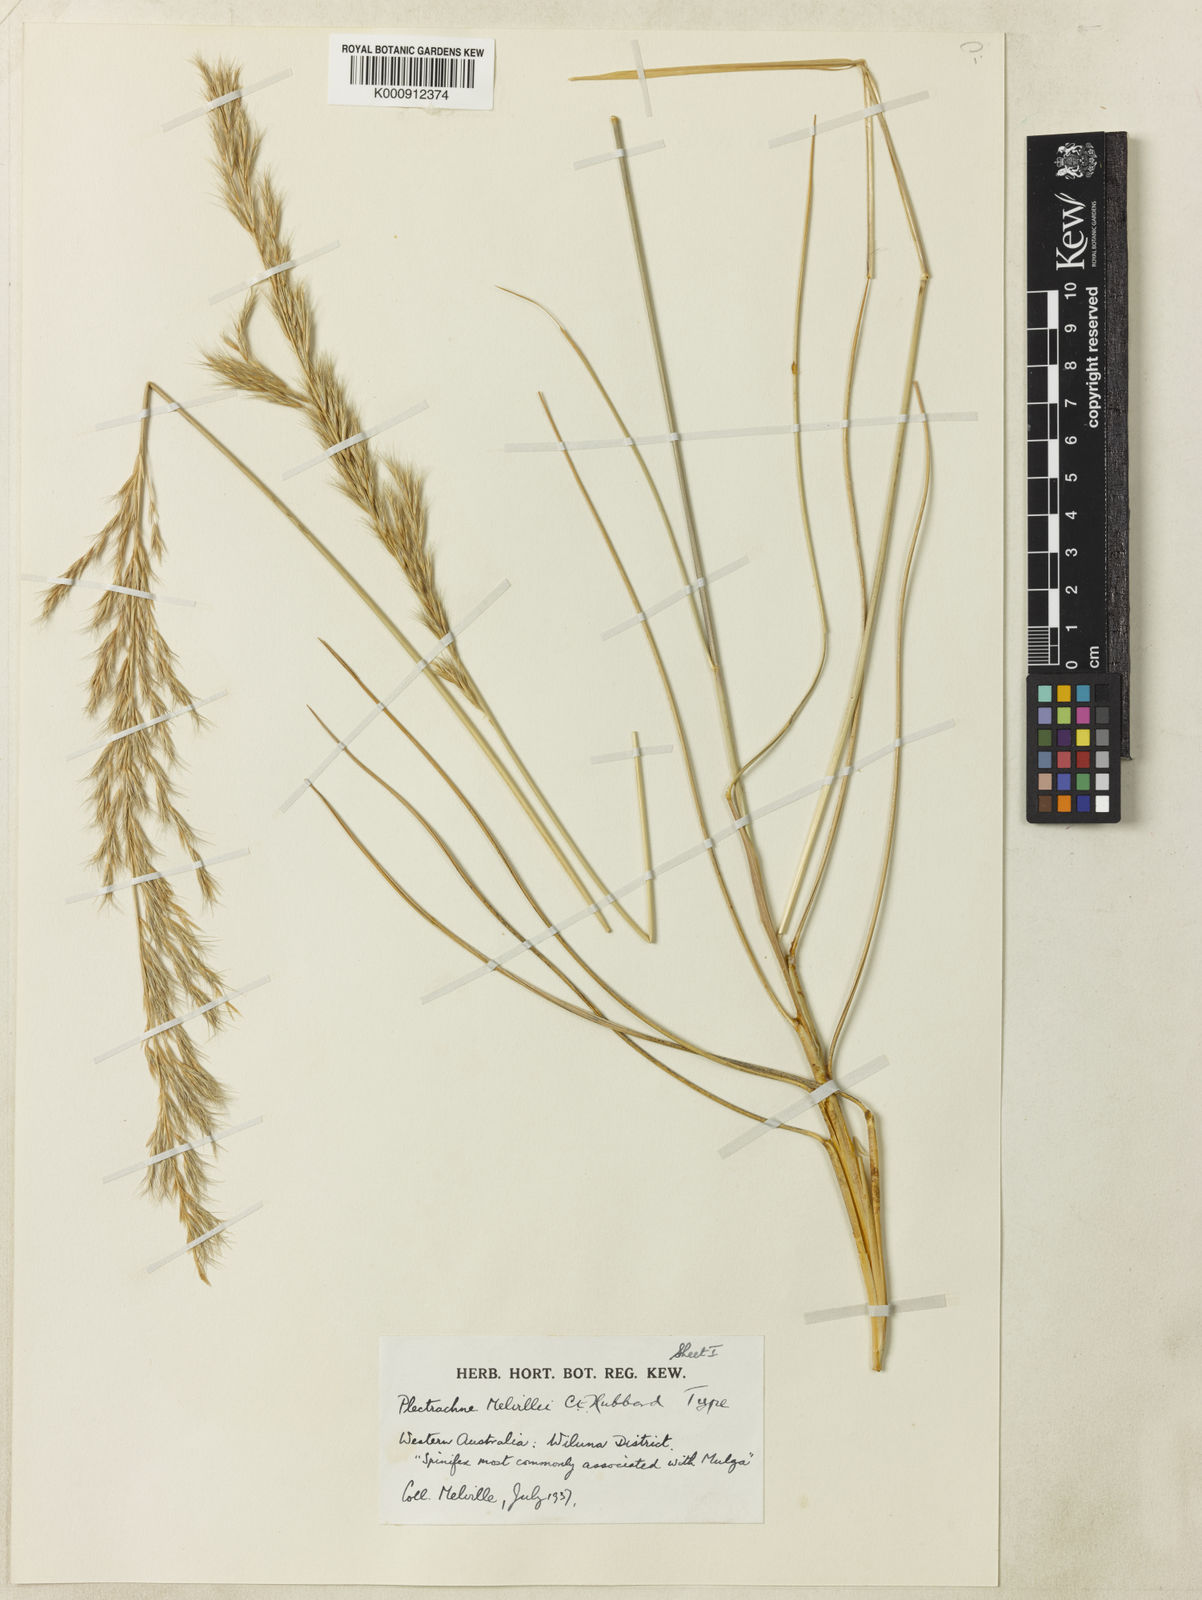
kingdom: Plantae
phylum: Tracheophyta
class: Liliopsida
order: Poales
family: Poaceae
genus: Triodia
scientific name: Triodia melvillei
